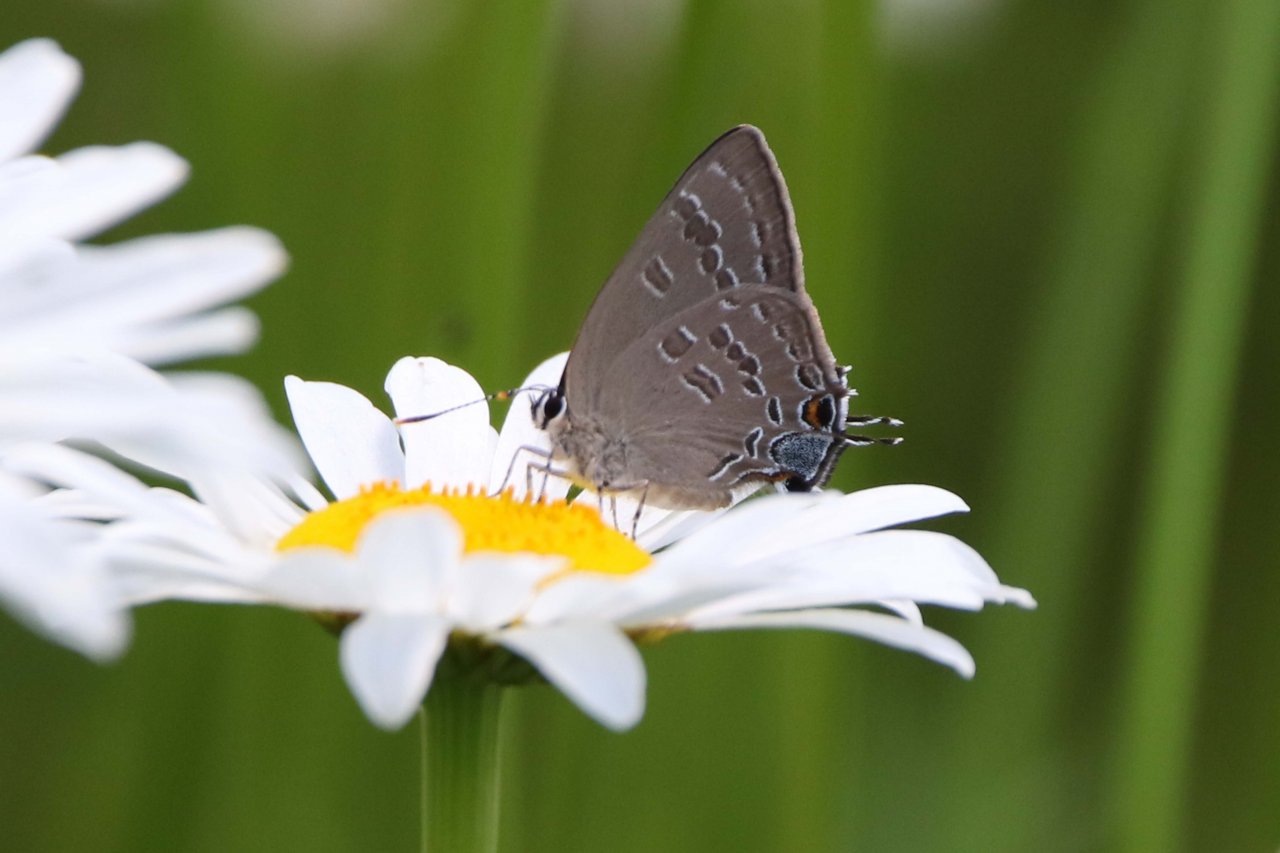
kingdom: Animalia
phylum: Arthropoda
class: Insecta
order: Lepidoptera
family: Lycaenidae
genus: Strymon
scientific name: Strymon caryaevorus
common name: Hickory Hairstreak
